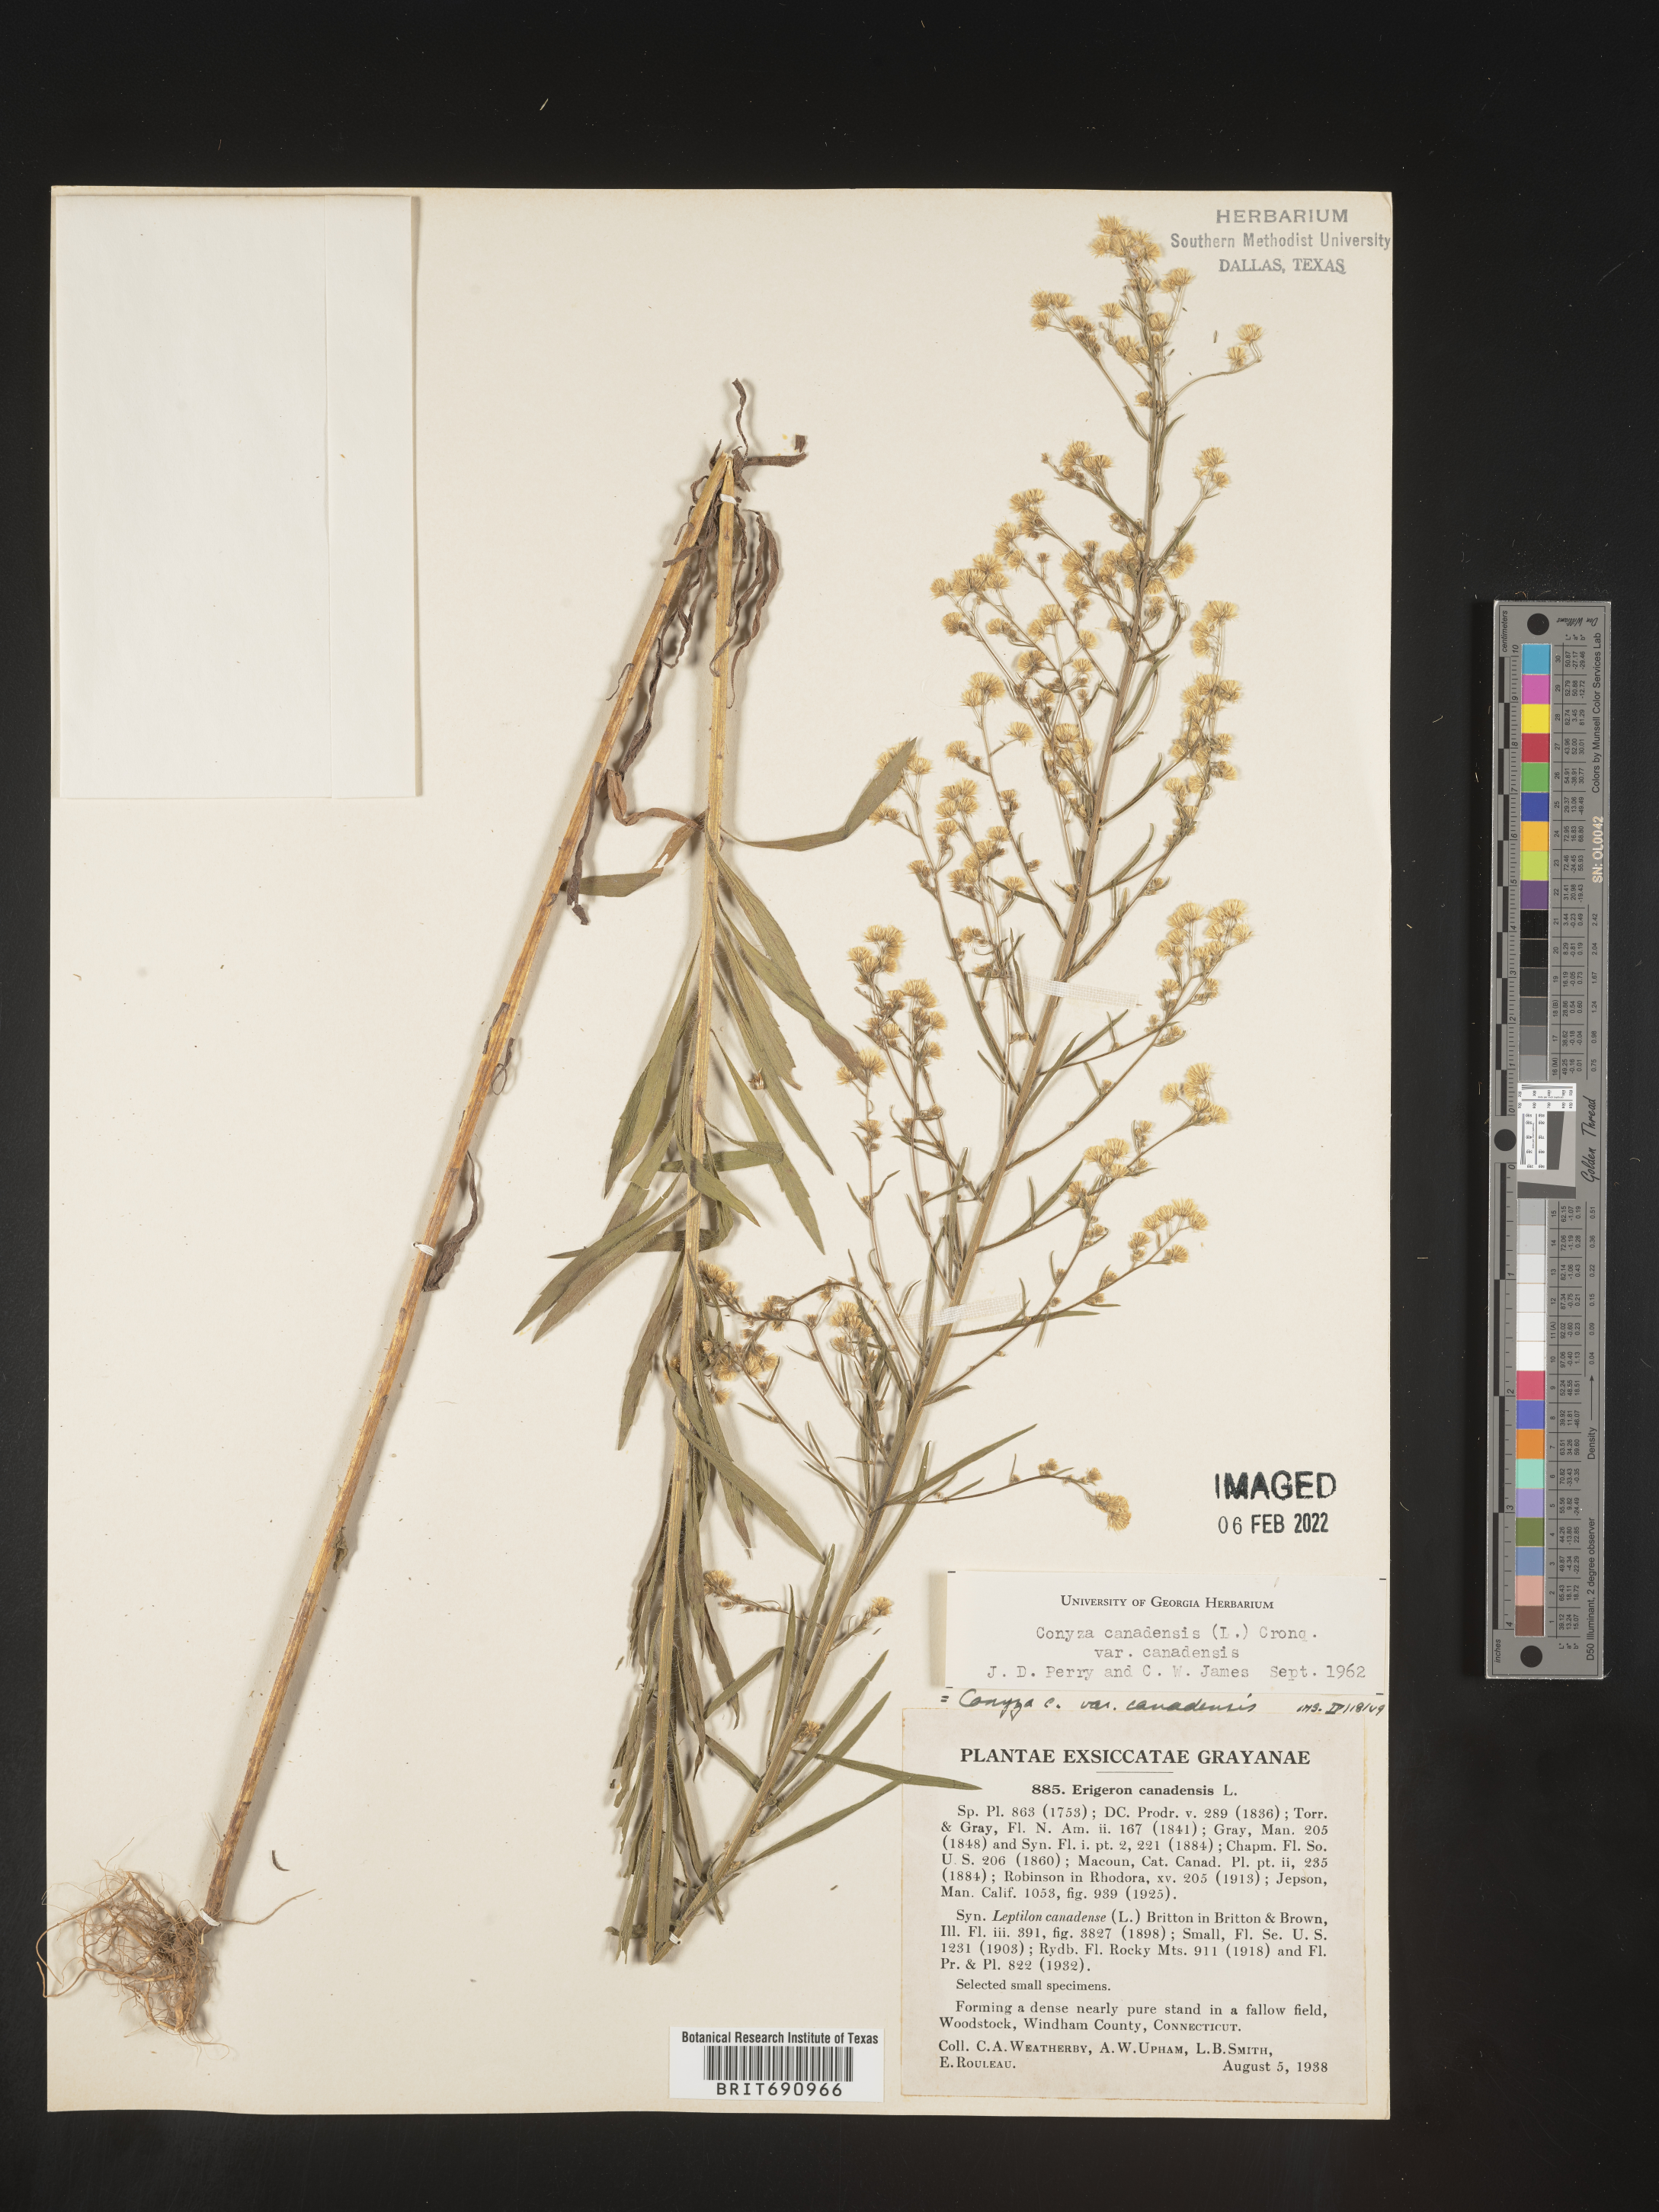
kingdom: Plantae
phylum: Tracheophyta
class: Magnoliopsida
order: Asterales
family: Asteraceae
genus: Erigeron
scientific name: Erigeron canadensis
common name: Canadian fleabane
